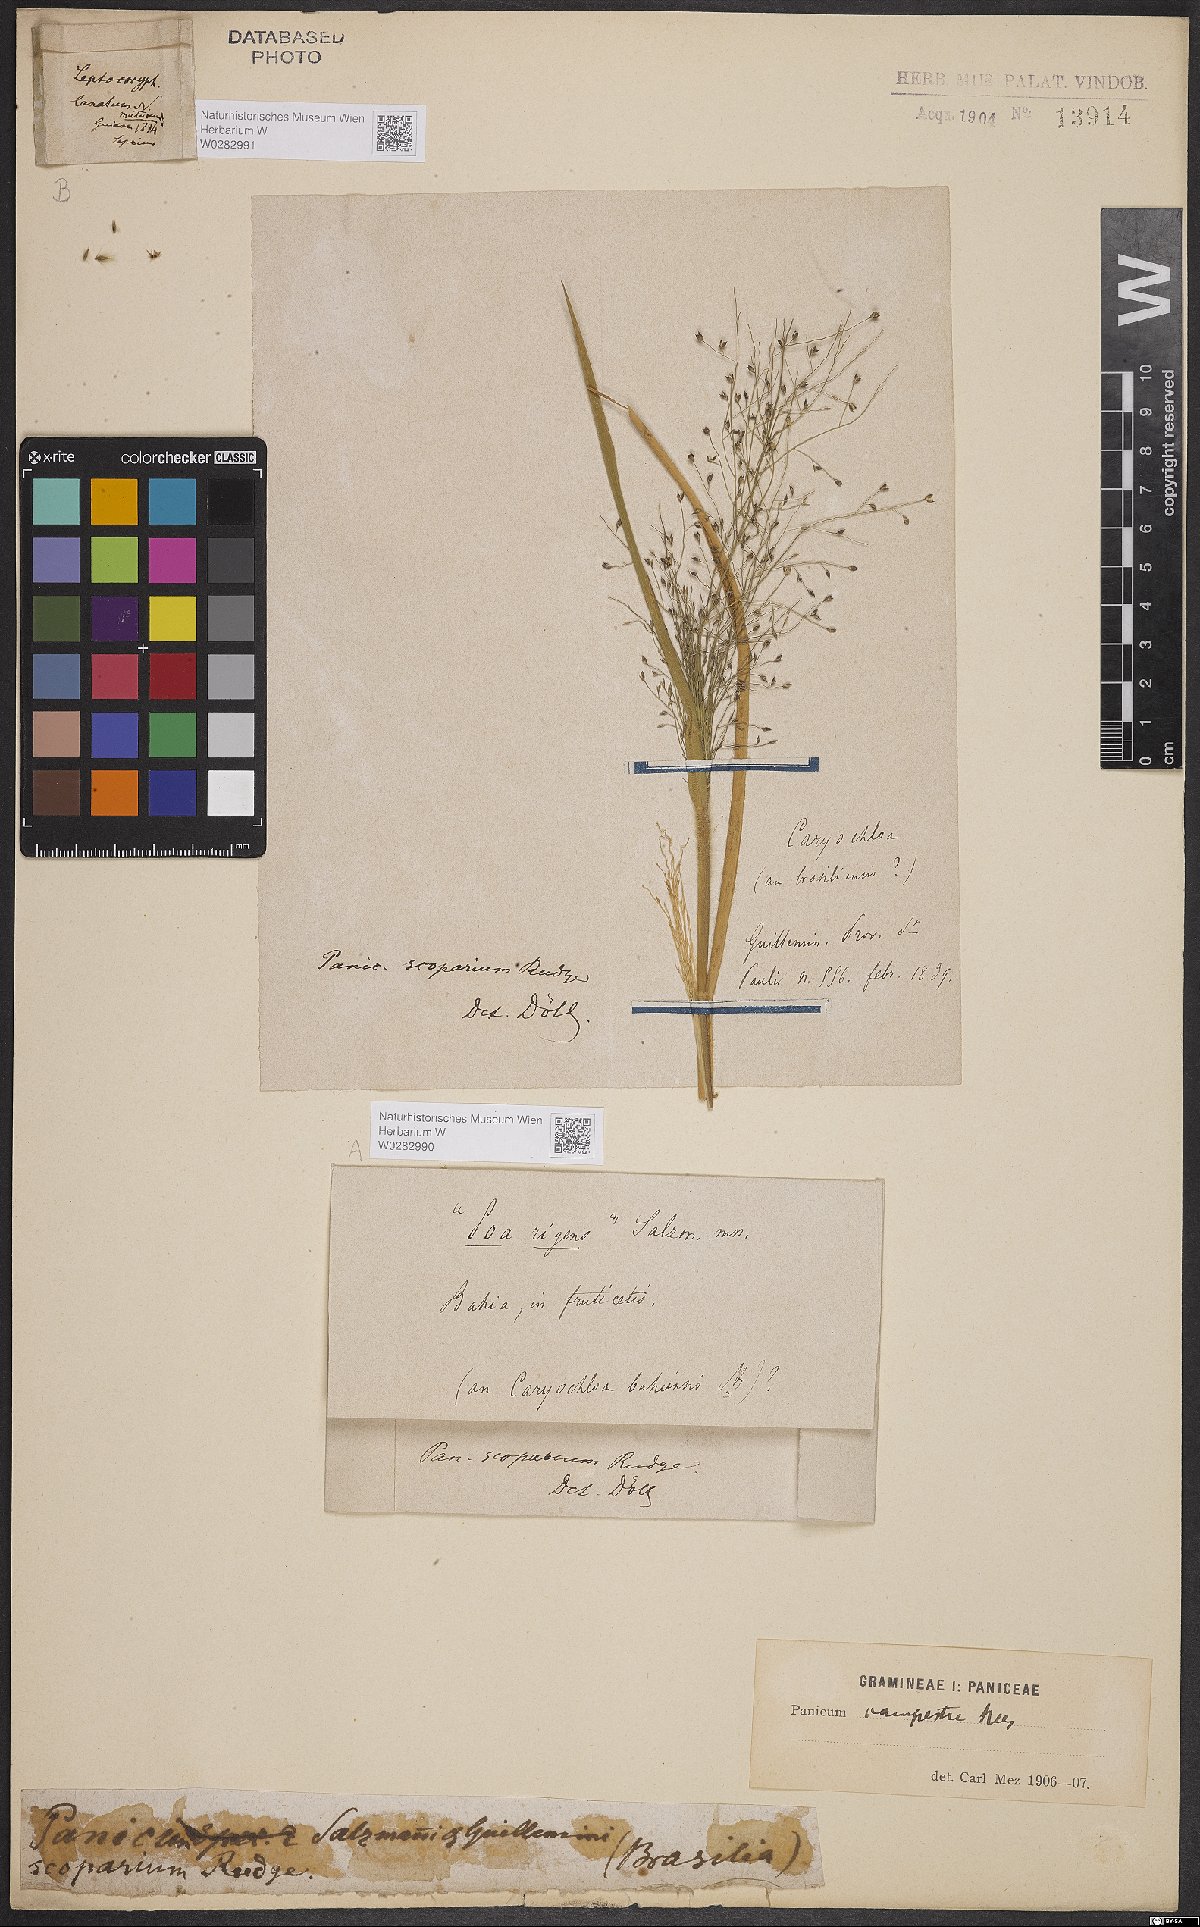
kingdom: Plantae
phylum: Tracheophyta
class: Liliopsida
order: Poales
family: Poaceae
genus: Panicum
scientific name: Panicum peladoense
